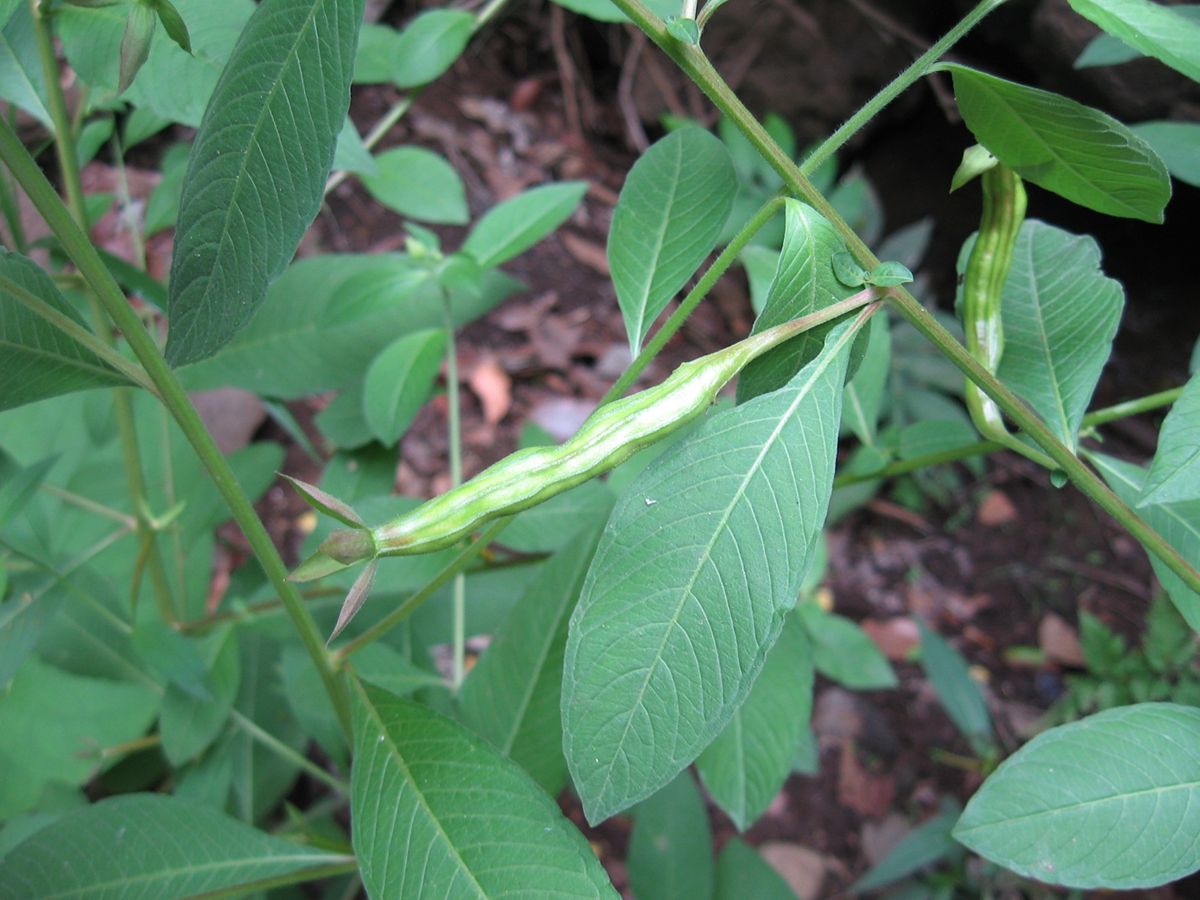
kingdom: Plantae
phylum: Tracheophyta
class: Magnoliopsida
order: Myrtales
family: Onagraceae
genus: Ludwigia
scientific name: Ludwigia octovalvis
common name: Water-primrose
